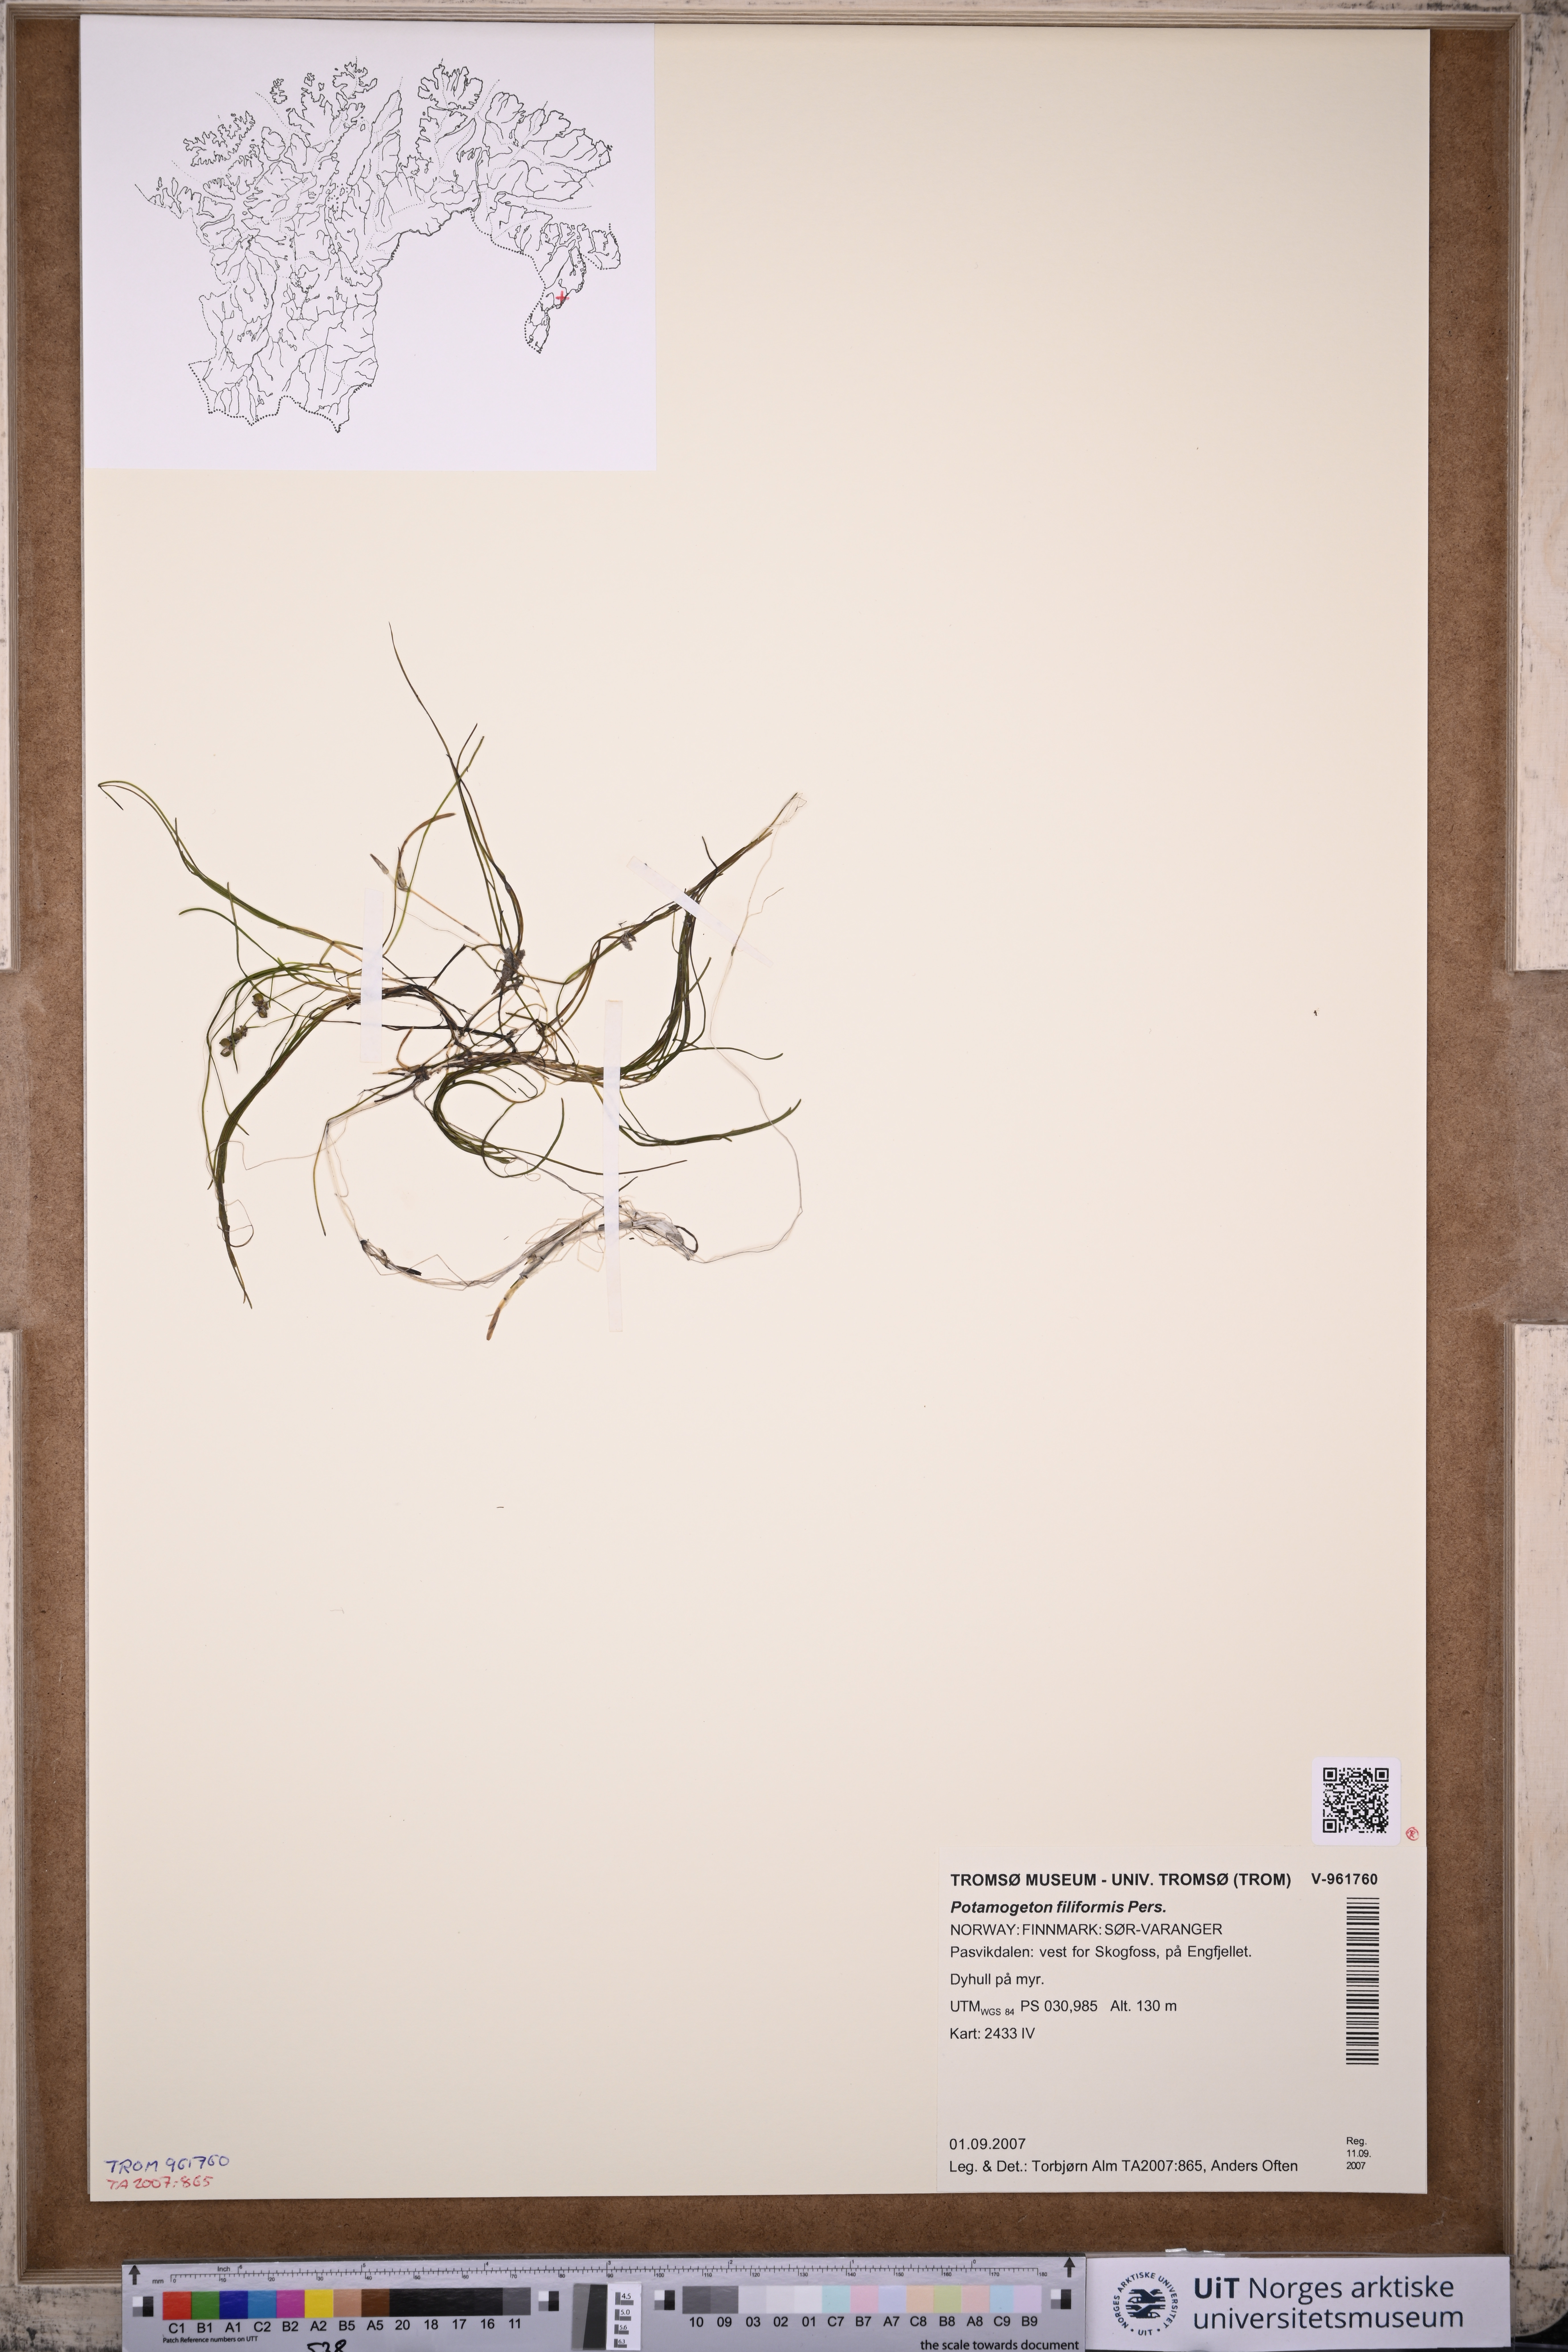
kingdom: Plantae
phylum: Tracheophyta
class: Liliopsida
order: Alismatales
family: Potamogetonaceae
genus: Stuckenia
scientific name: Stuckenia filiformis
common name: Alpine thread-leaved pondweed
